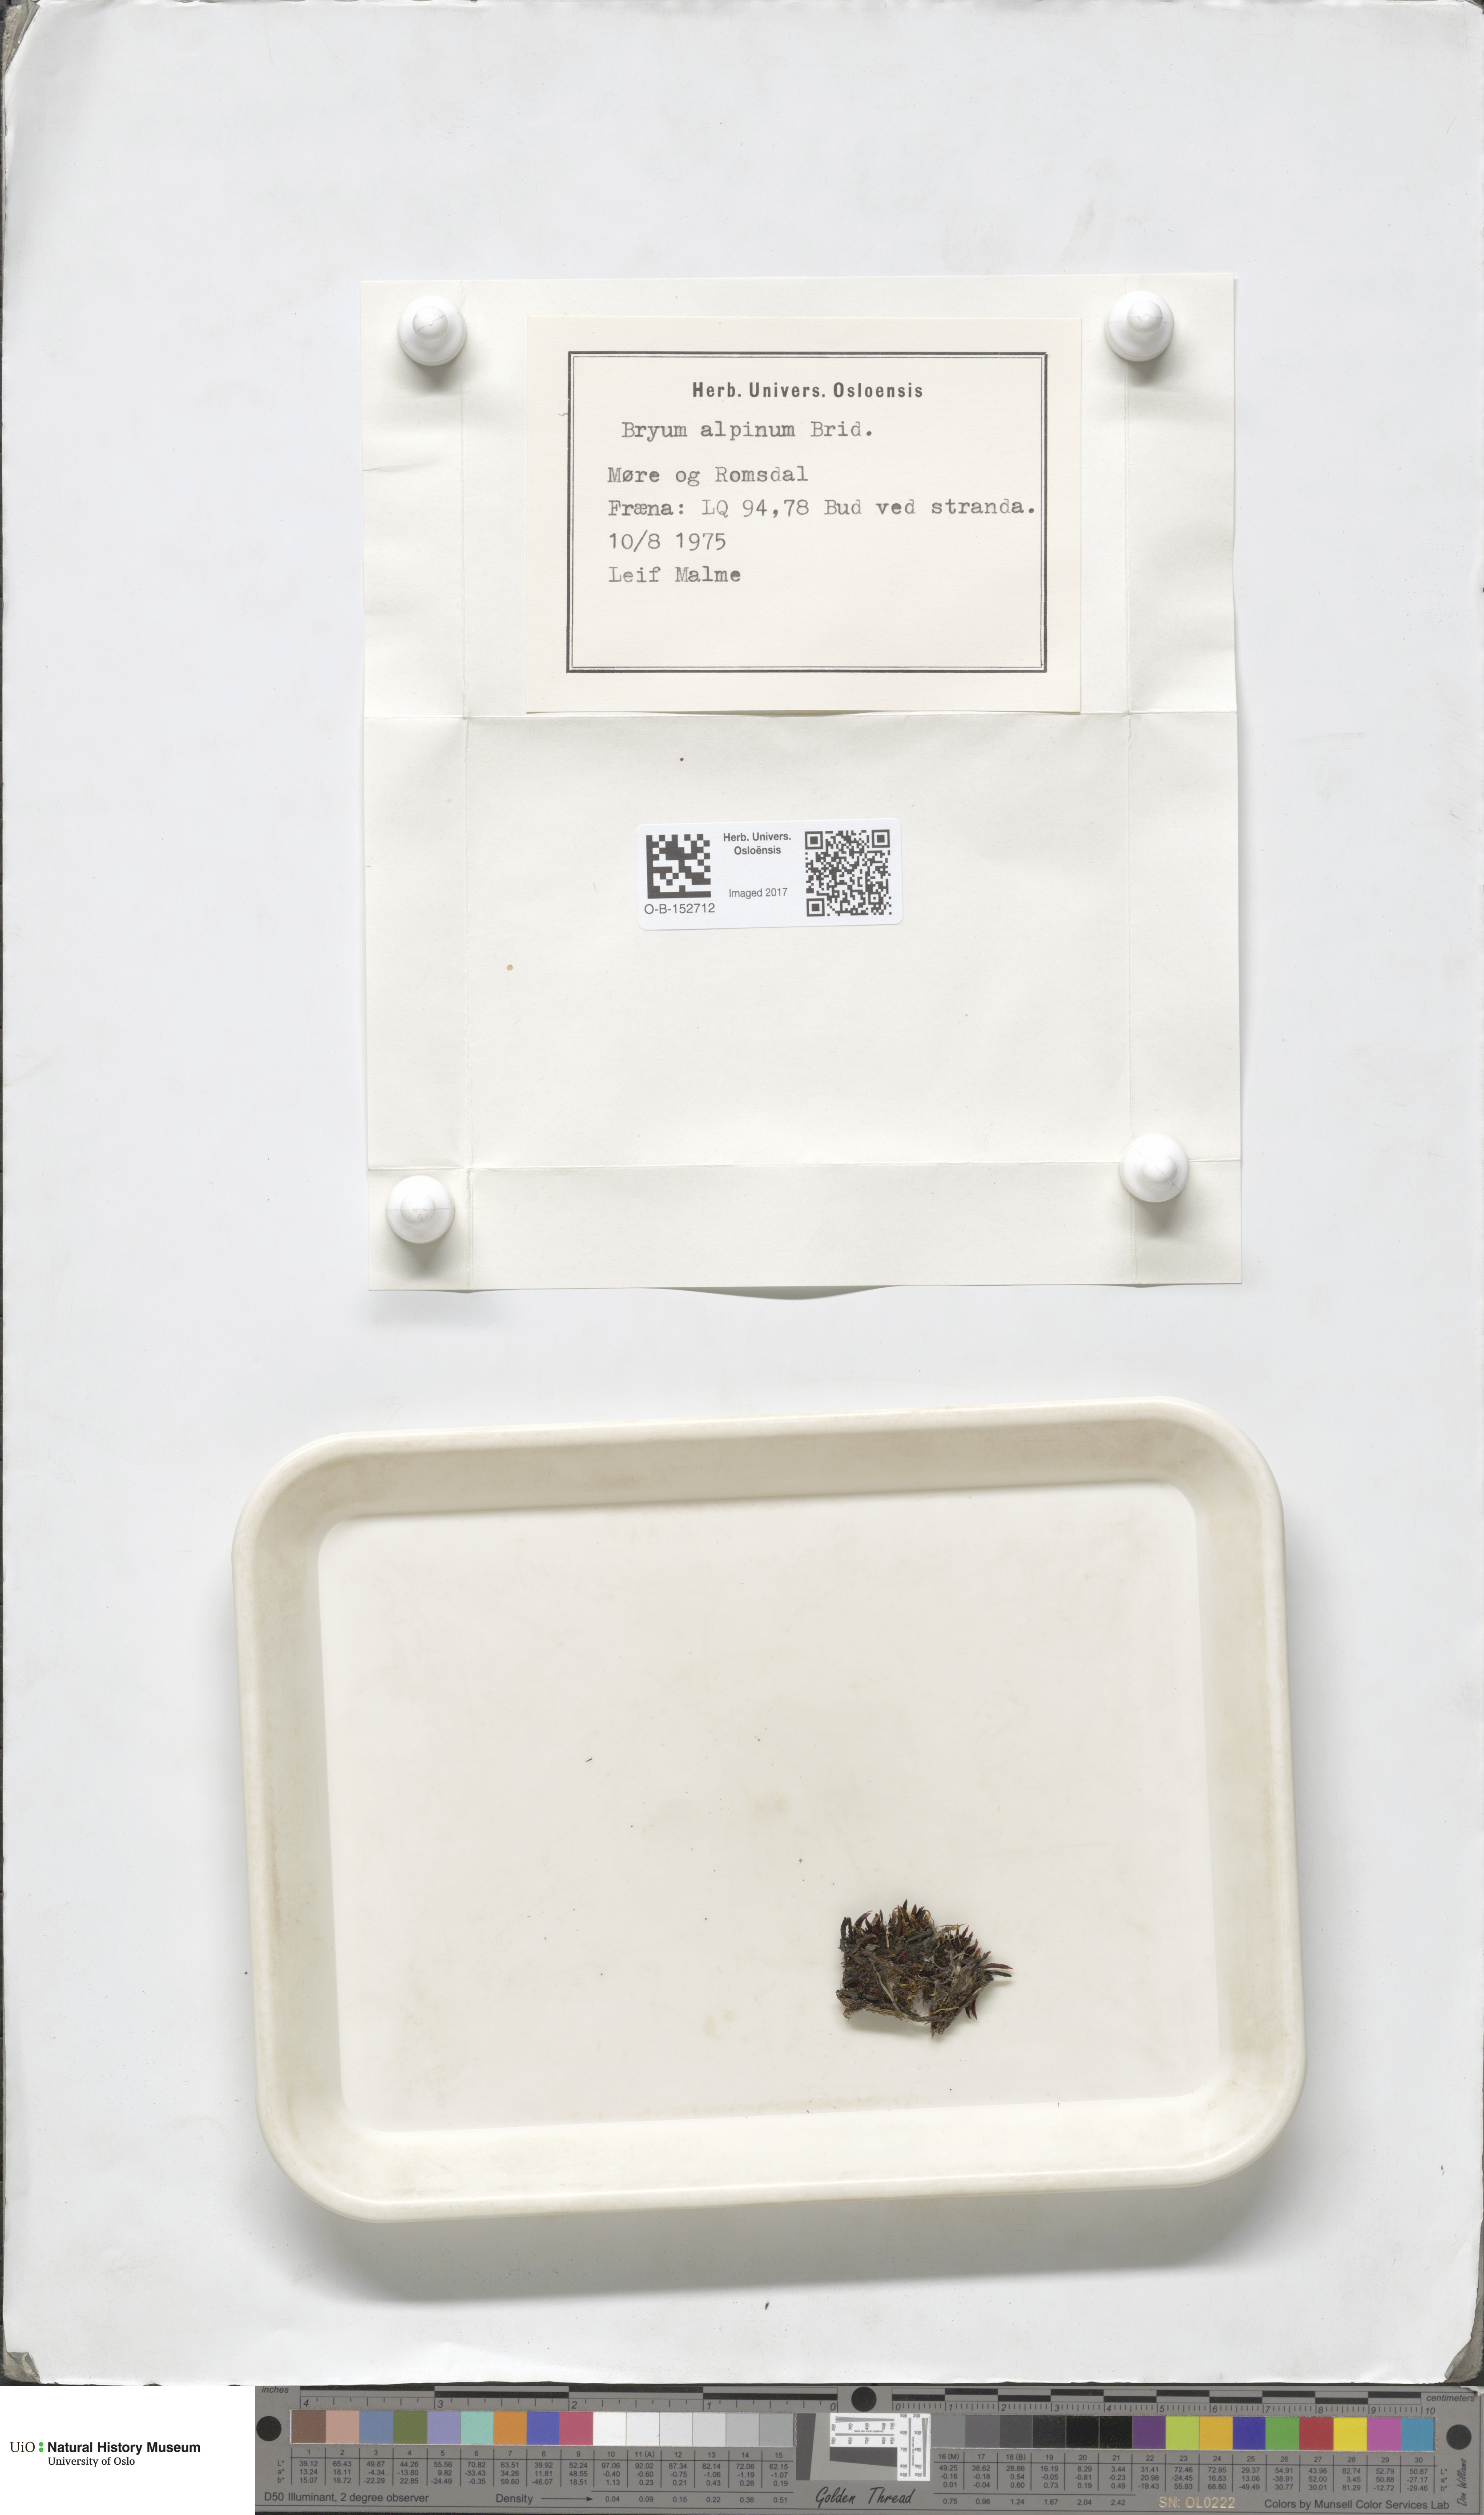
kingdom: Plantae
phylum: Bryophyta
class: Bryopsida
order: Bryales
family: Bryaceae
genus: Imbribryum
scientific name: Imbribryum alpinum
